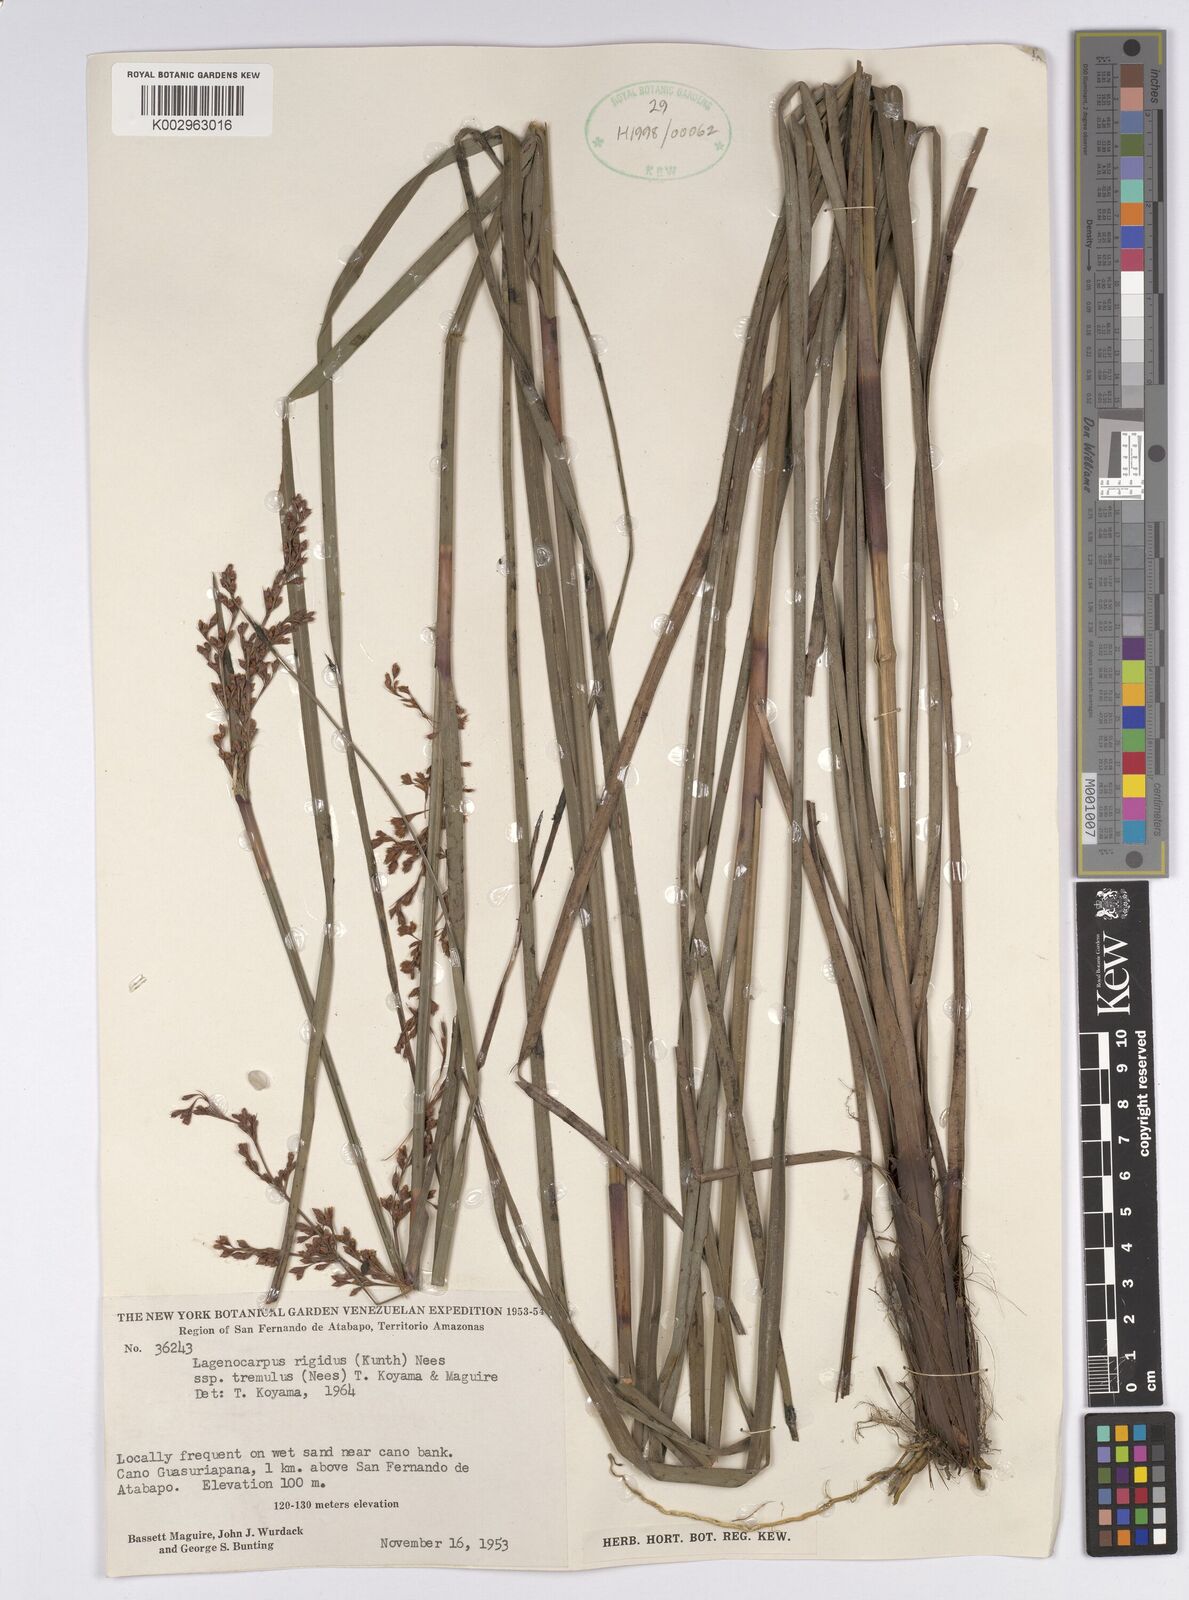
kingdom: Plantae
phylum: Tracheophyta
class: Liliopsida
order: Poales
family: Cyperaceae
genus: Lagenocarpus
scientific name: Lagenocarpus rigidus
